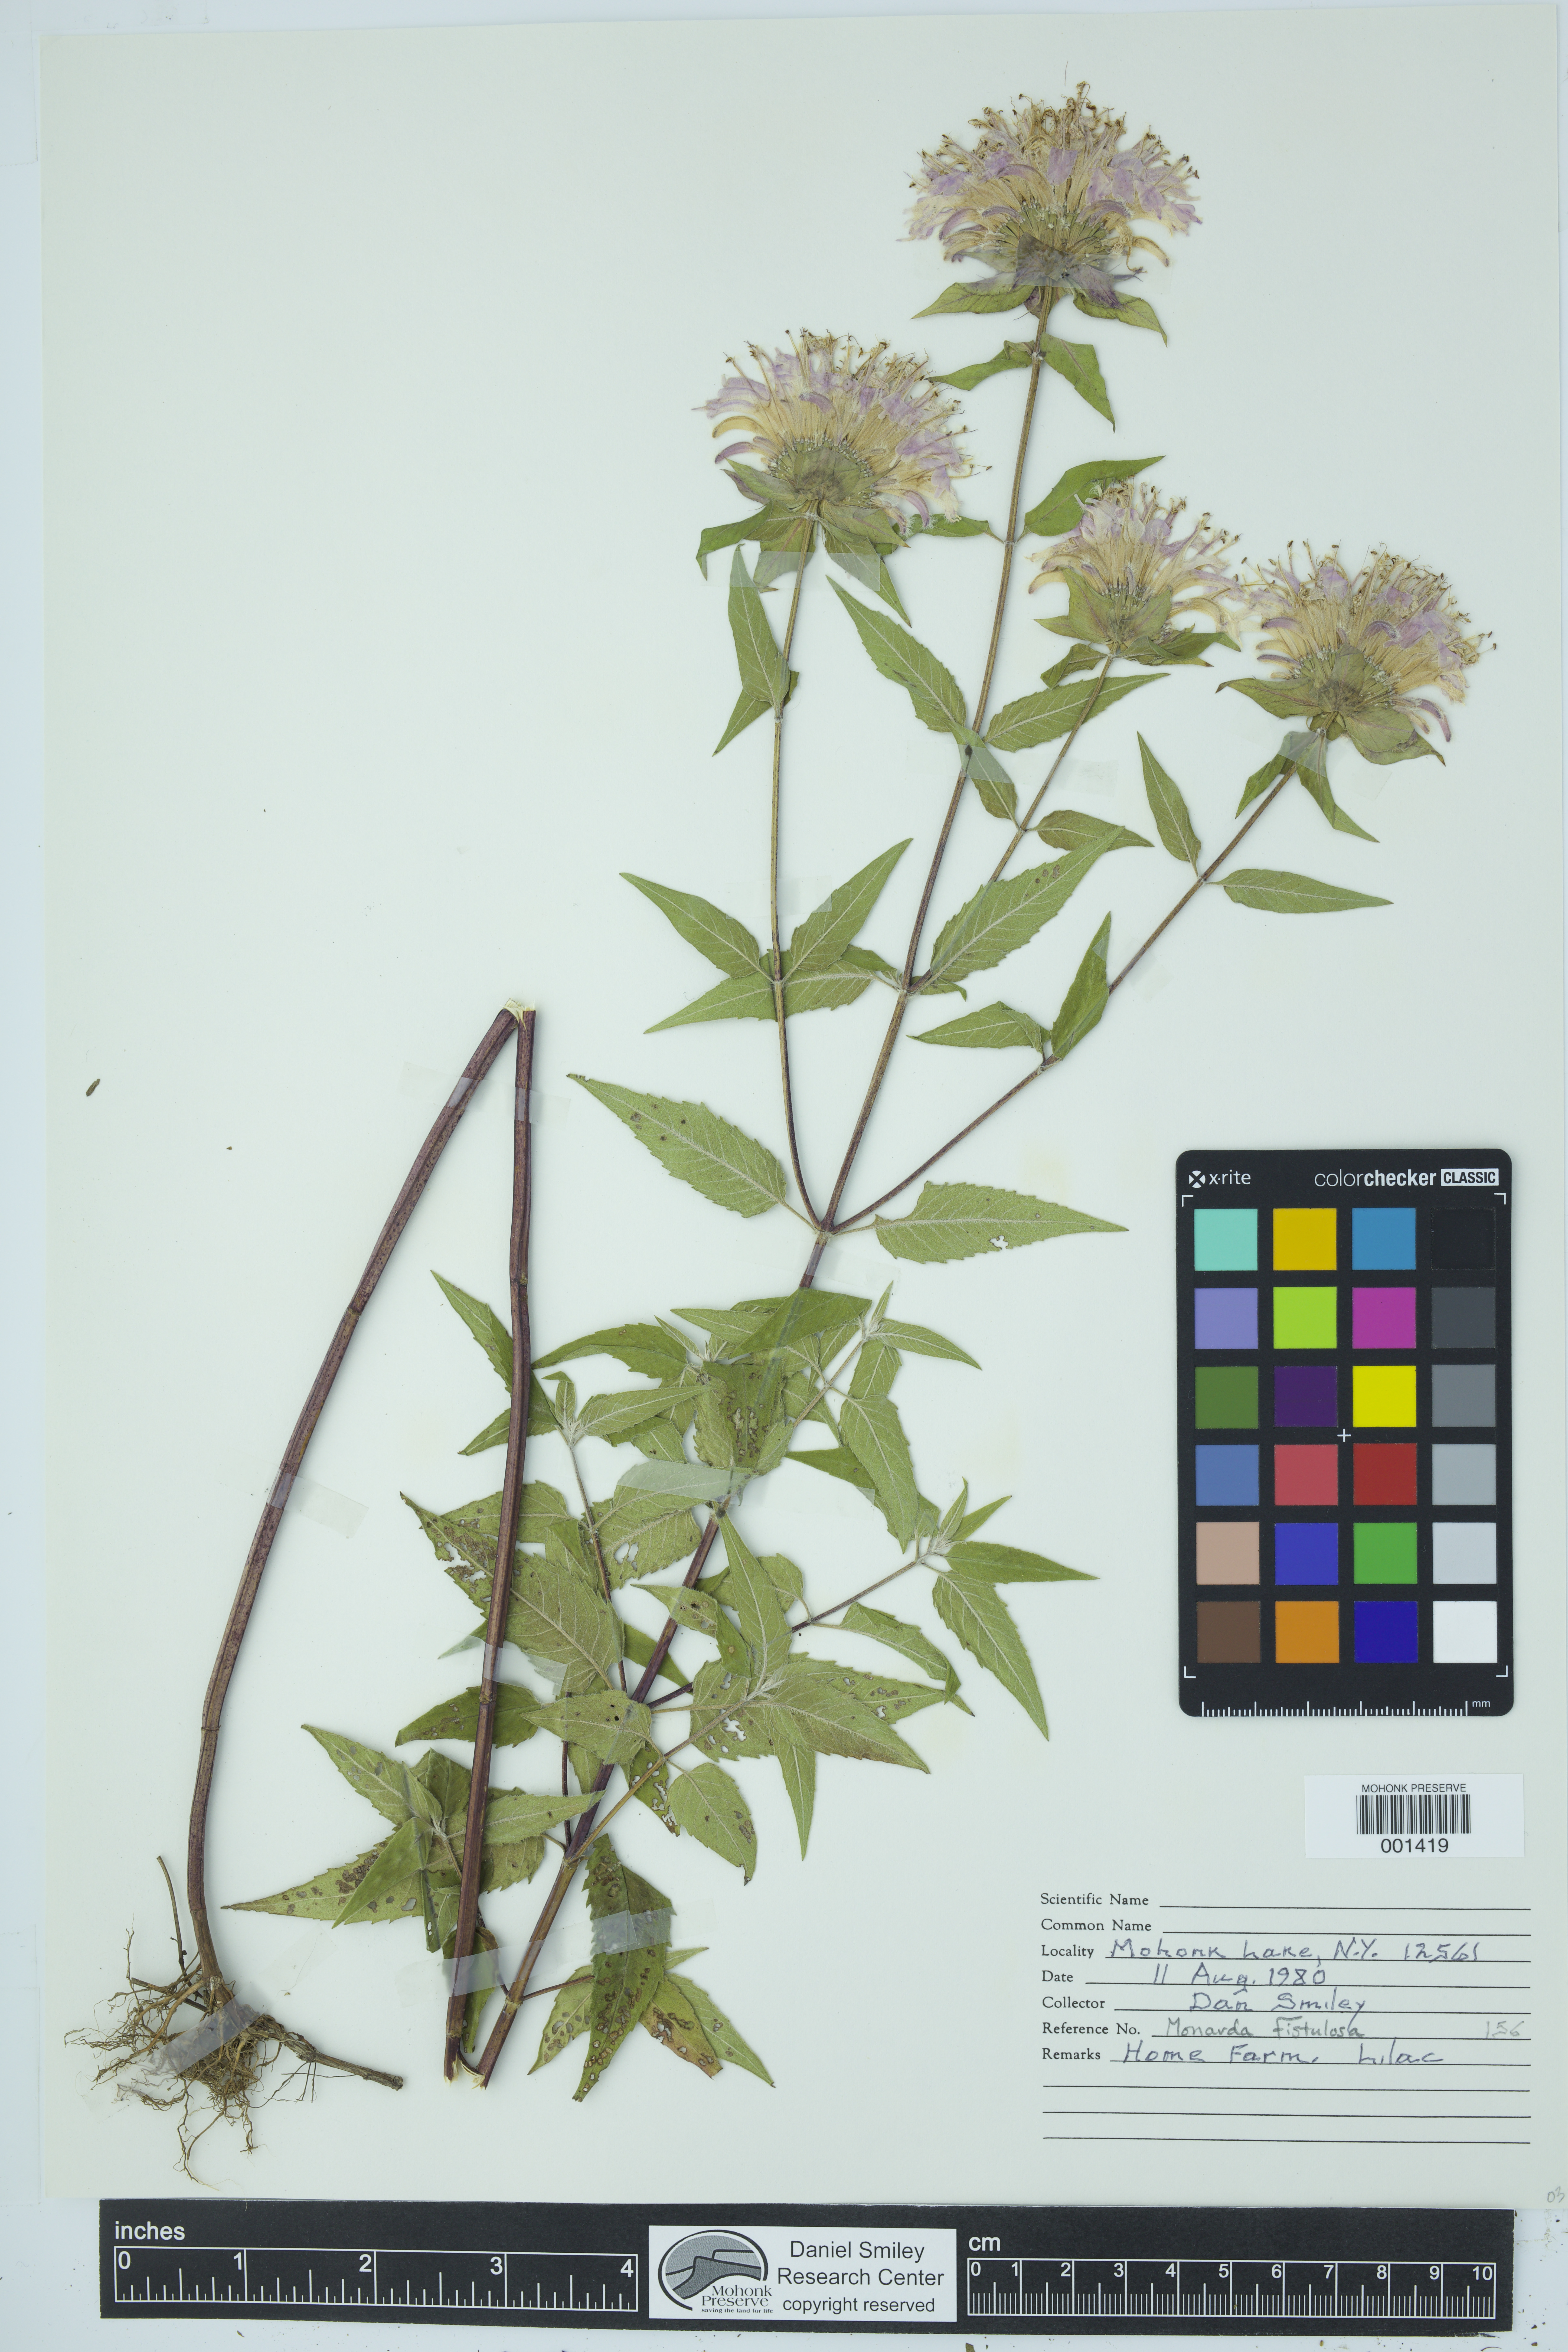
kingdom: Plantae
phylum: Tracheophyta
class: Magnoliopsida
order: Lamiales
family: Lamiaceae
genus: Monarda
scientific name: Monarda fistulosa
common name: Purple beebalm
